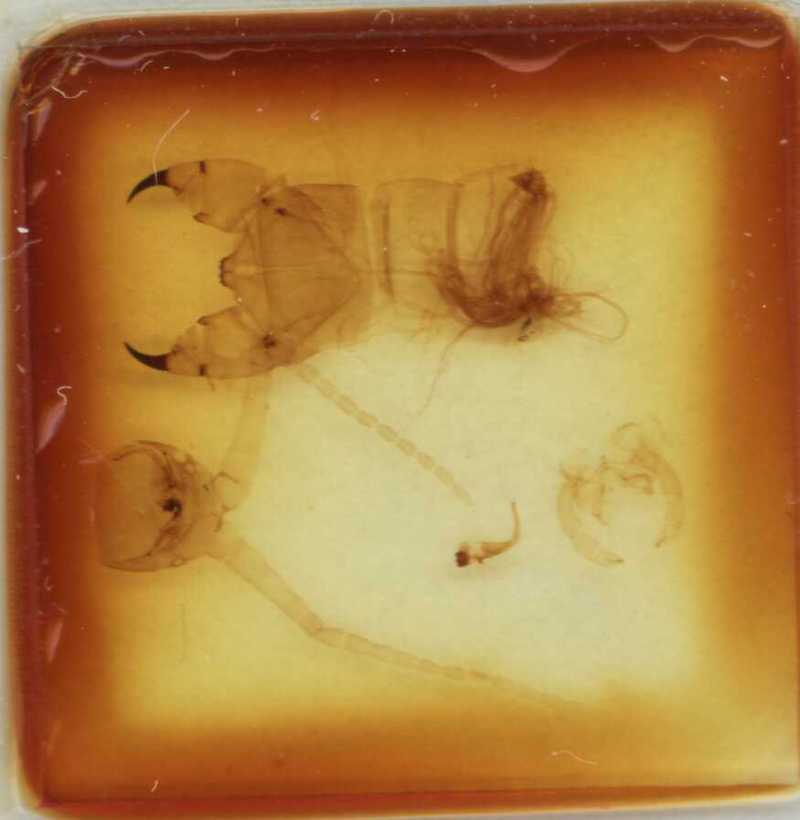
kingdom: Animalia
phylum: Arthropoda
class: Chilopoda
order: Scolopendromorpha
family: Scolopendridae
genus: Otostigmus
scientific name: Otostigmus demelloi
